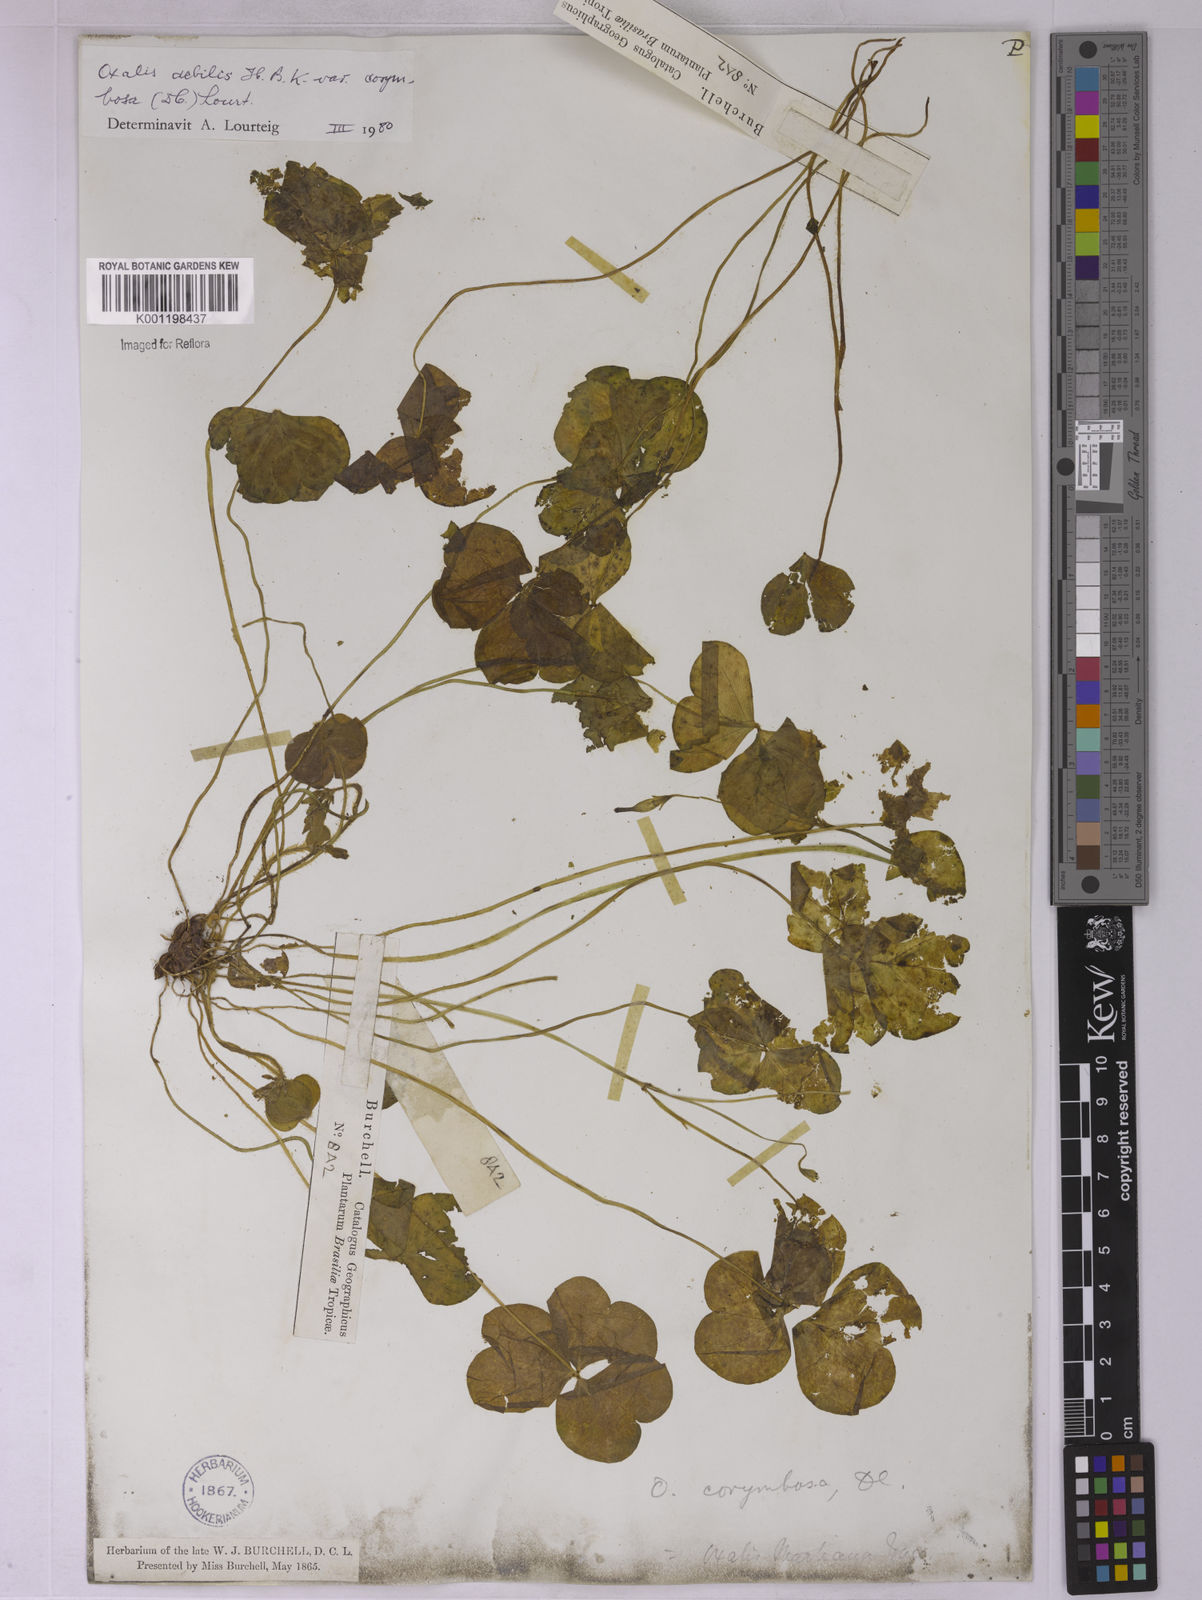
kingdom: Plantae
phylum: Tracheophyta
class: Magnoliopsida
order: Oxalidales
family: Oxalidaceae
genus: Oxalis
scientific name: Oxalis debilis
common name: Large-flowered pink-sorrel
